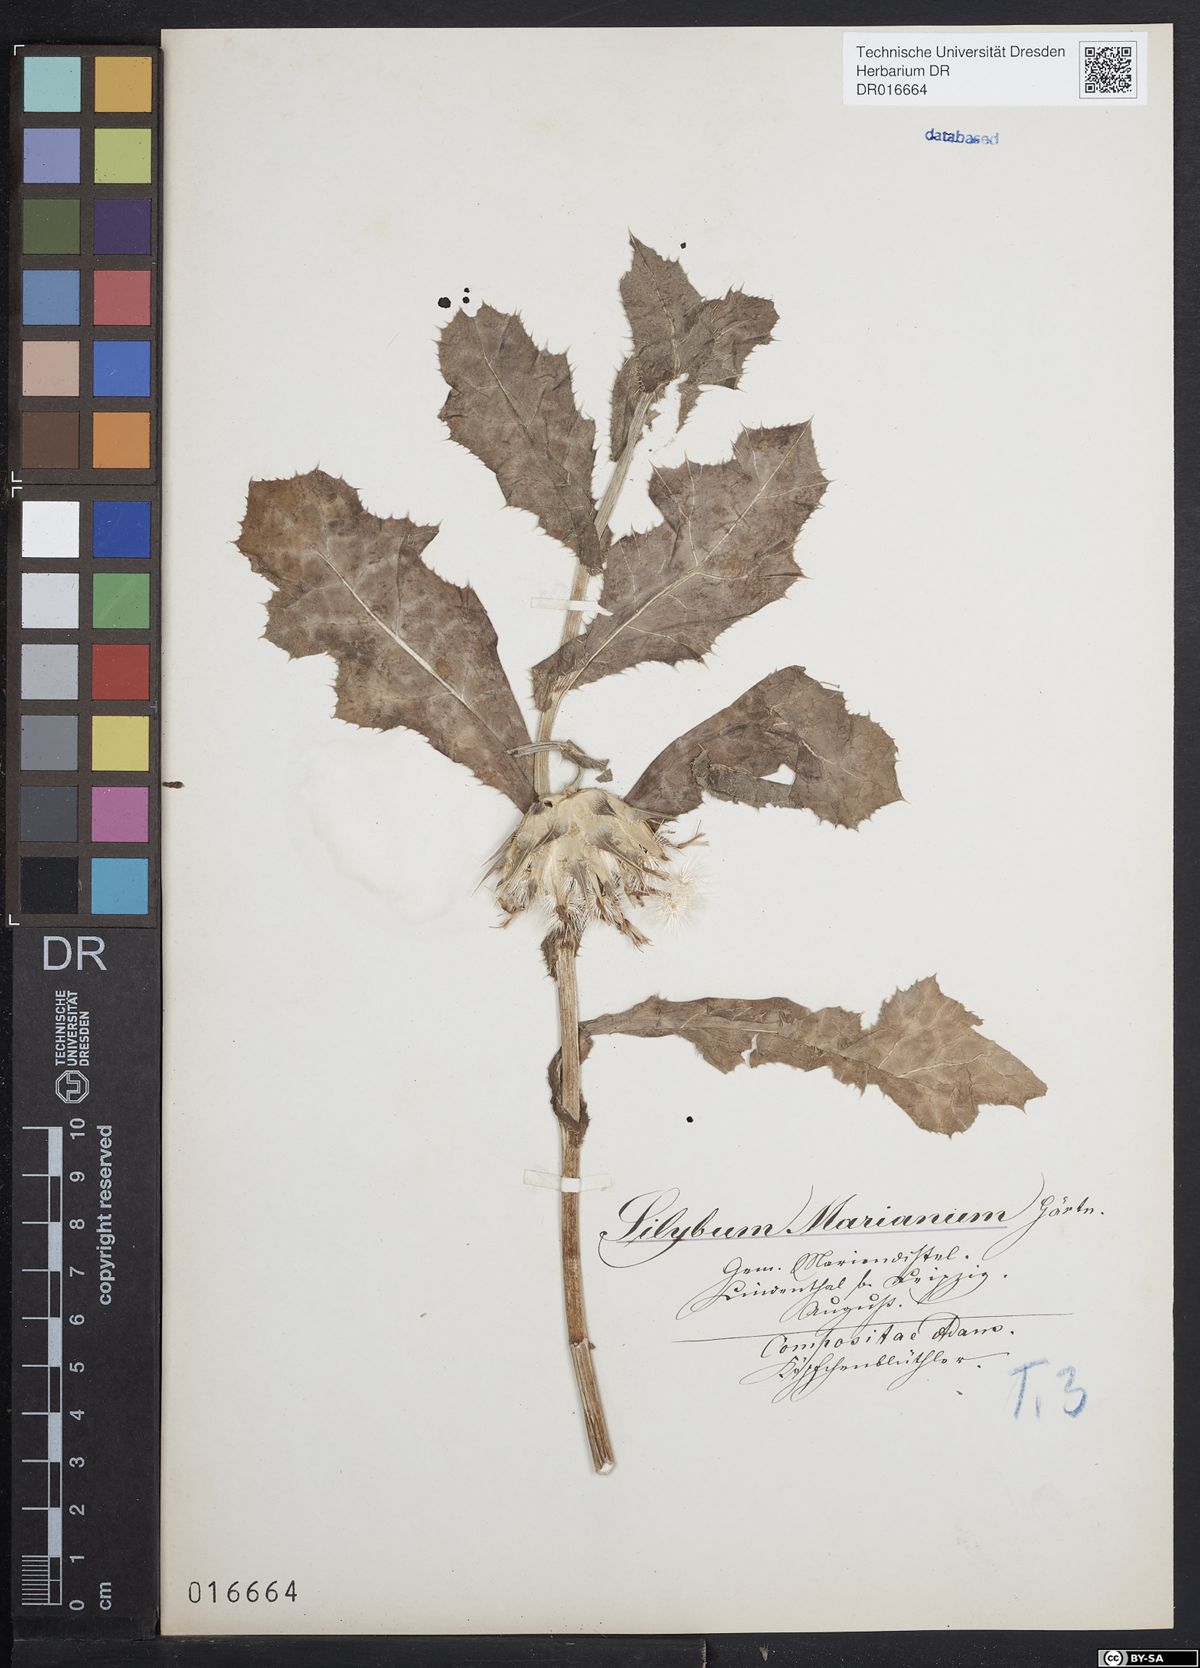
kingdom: Plantae
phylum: Tracheophyta
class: Magnoliopsida
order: Asterales
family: Asteraceae
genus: Silybum
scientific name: Silybum marianum
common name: Milk thistle
